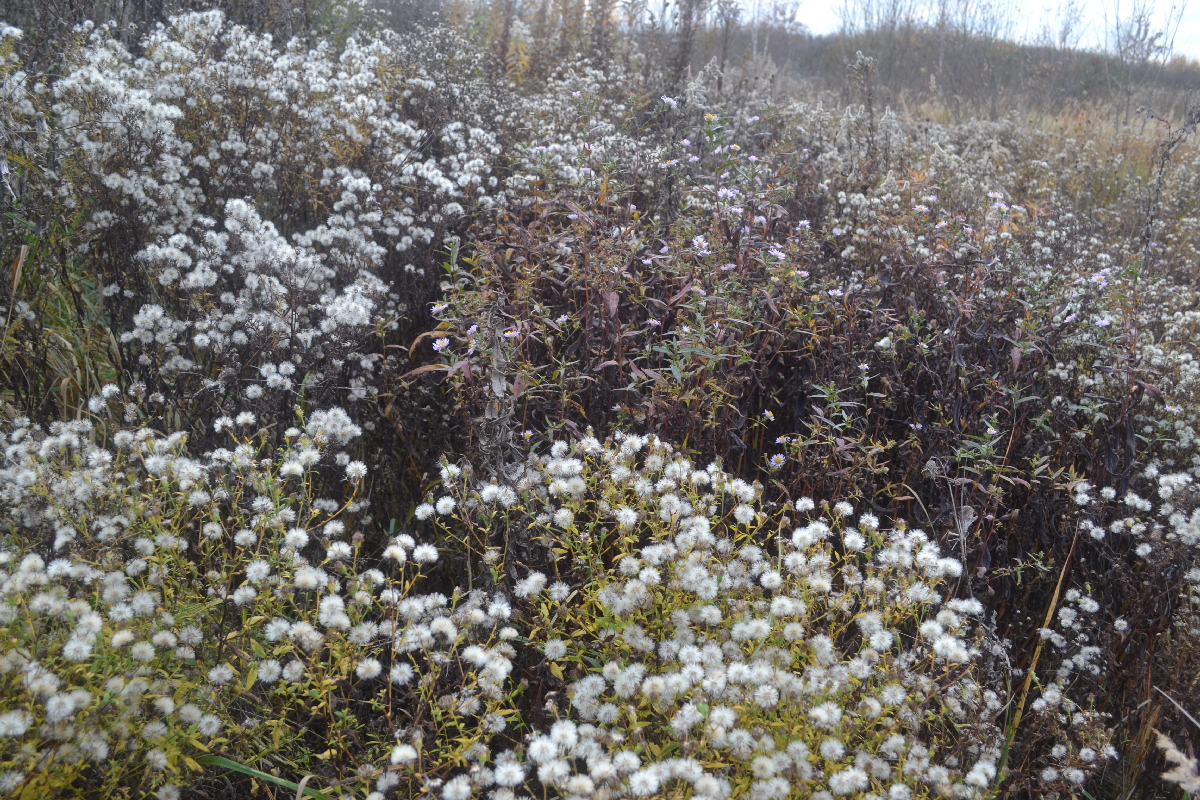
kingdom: Plantae
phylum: Tracheophyta
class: Magnoliopsida
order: Asterales
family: Asteraceae
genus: Erigeron
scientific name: Erigeron annuus
